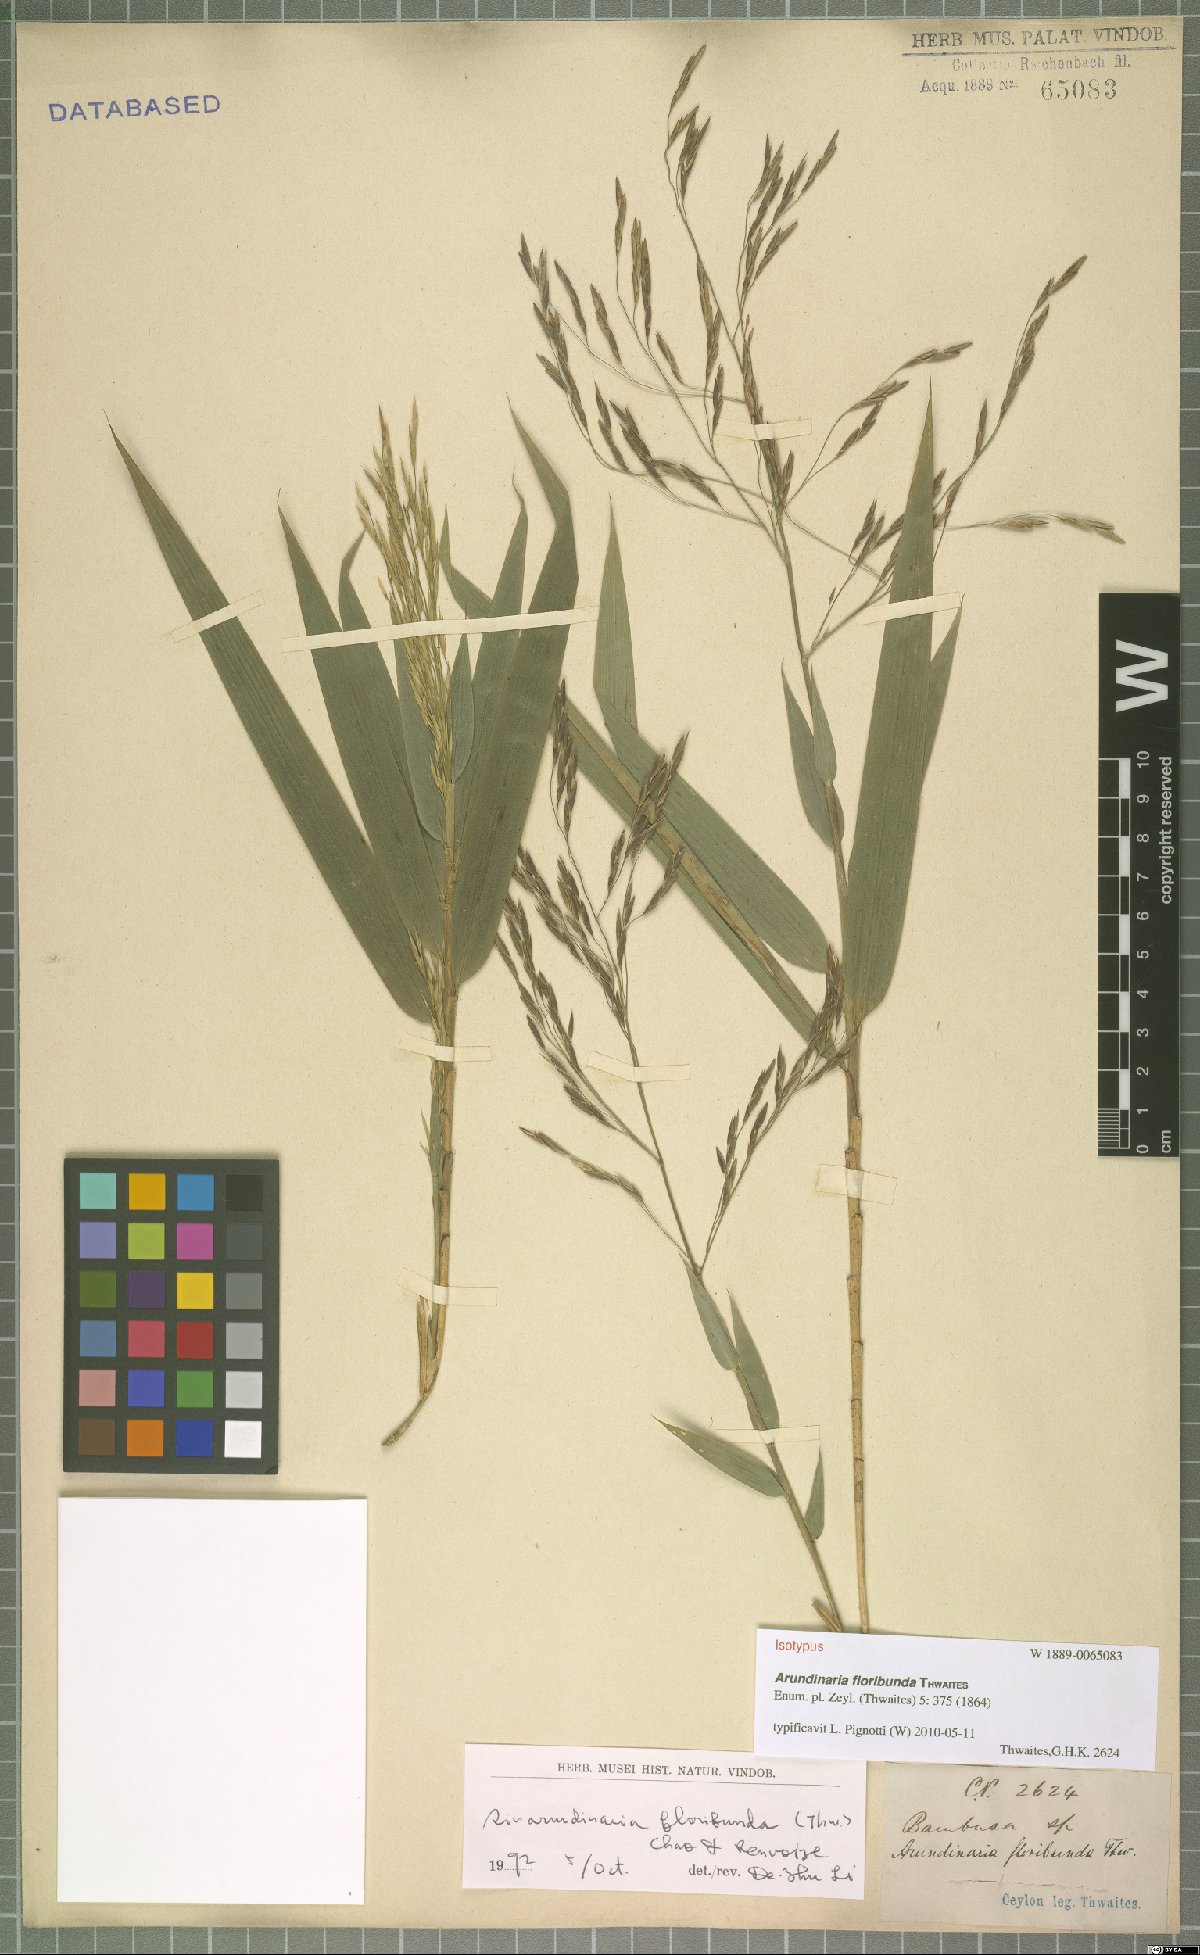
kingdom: Plantae
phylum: Tracheophyta
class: Liliopsida
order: Poales
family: Poaceae
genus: Kuruna
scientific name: Kuruna floribunda
